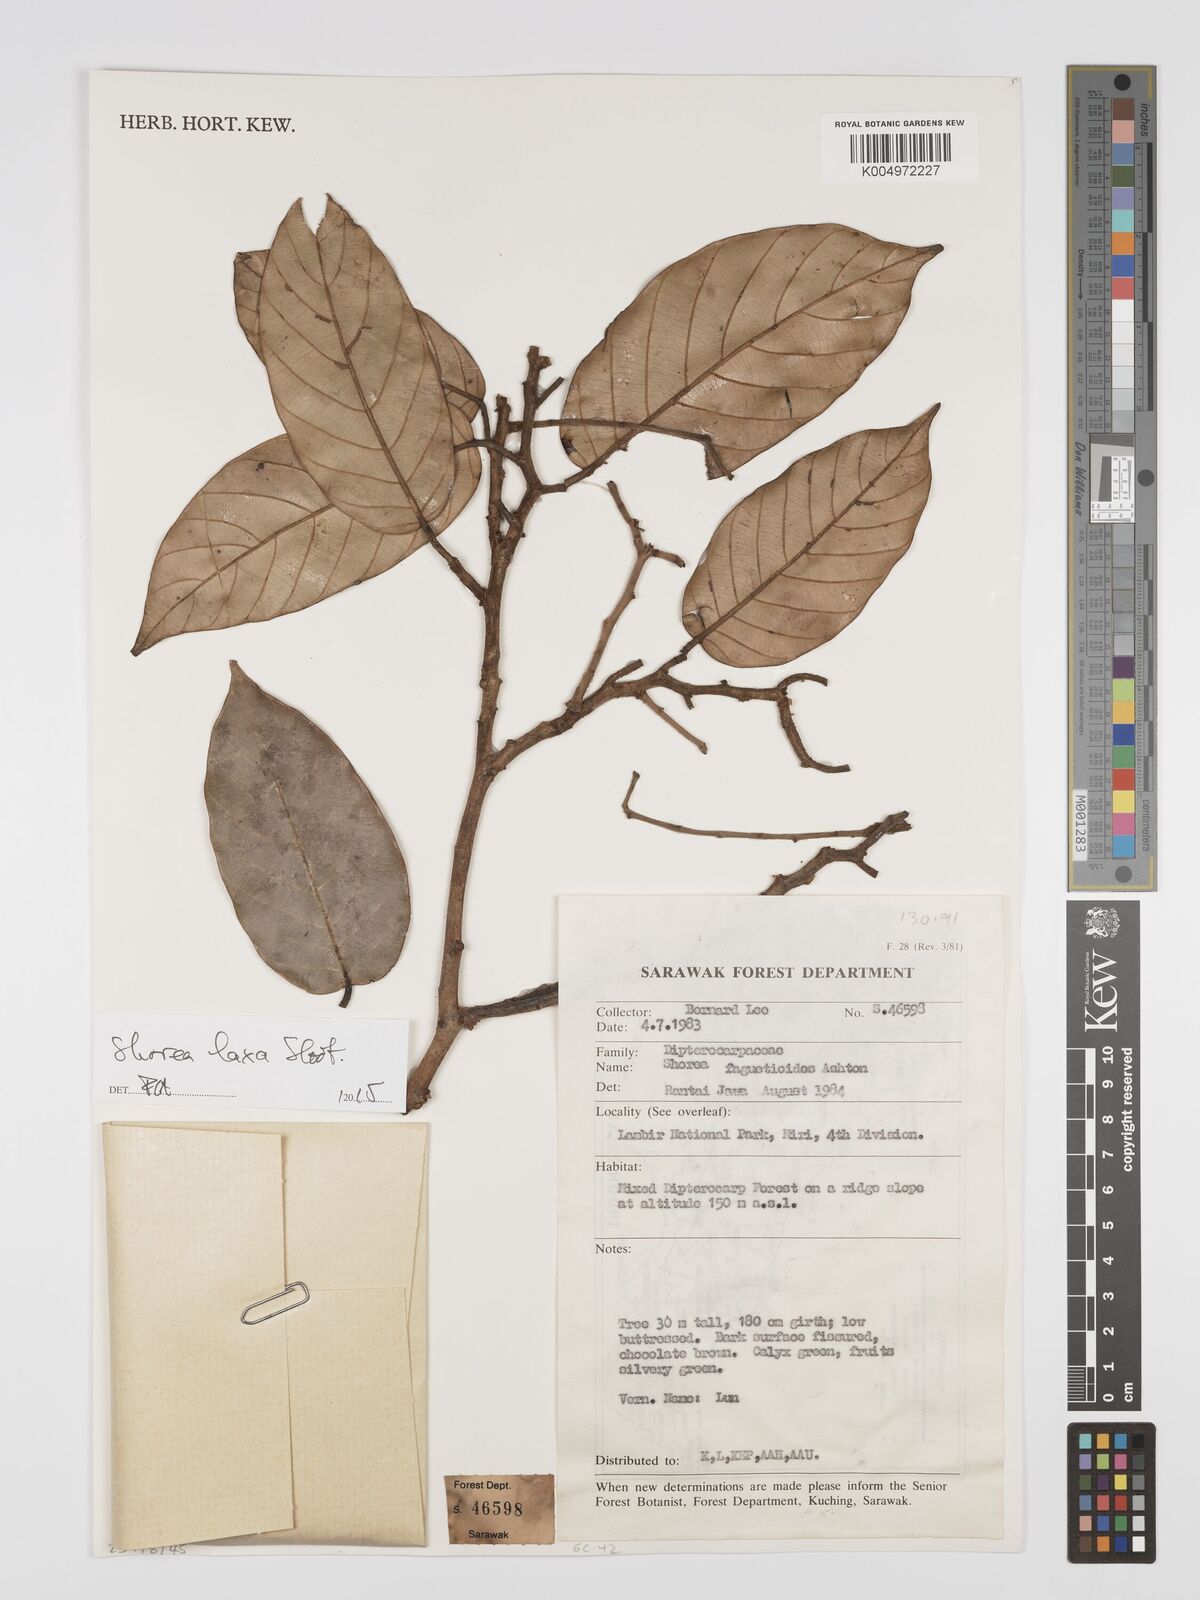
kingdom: Plantae
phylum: Tracheophyta
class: Magnoliopsida
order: Malvales
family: Dipterocarpaceae
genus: Shorea
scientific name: Shorea laxa
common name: Yellow meranti
